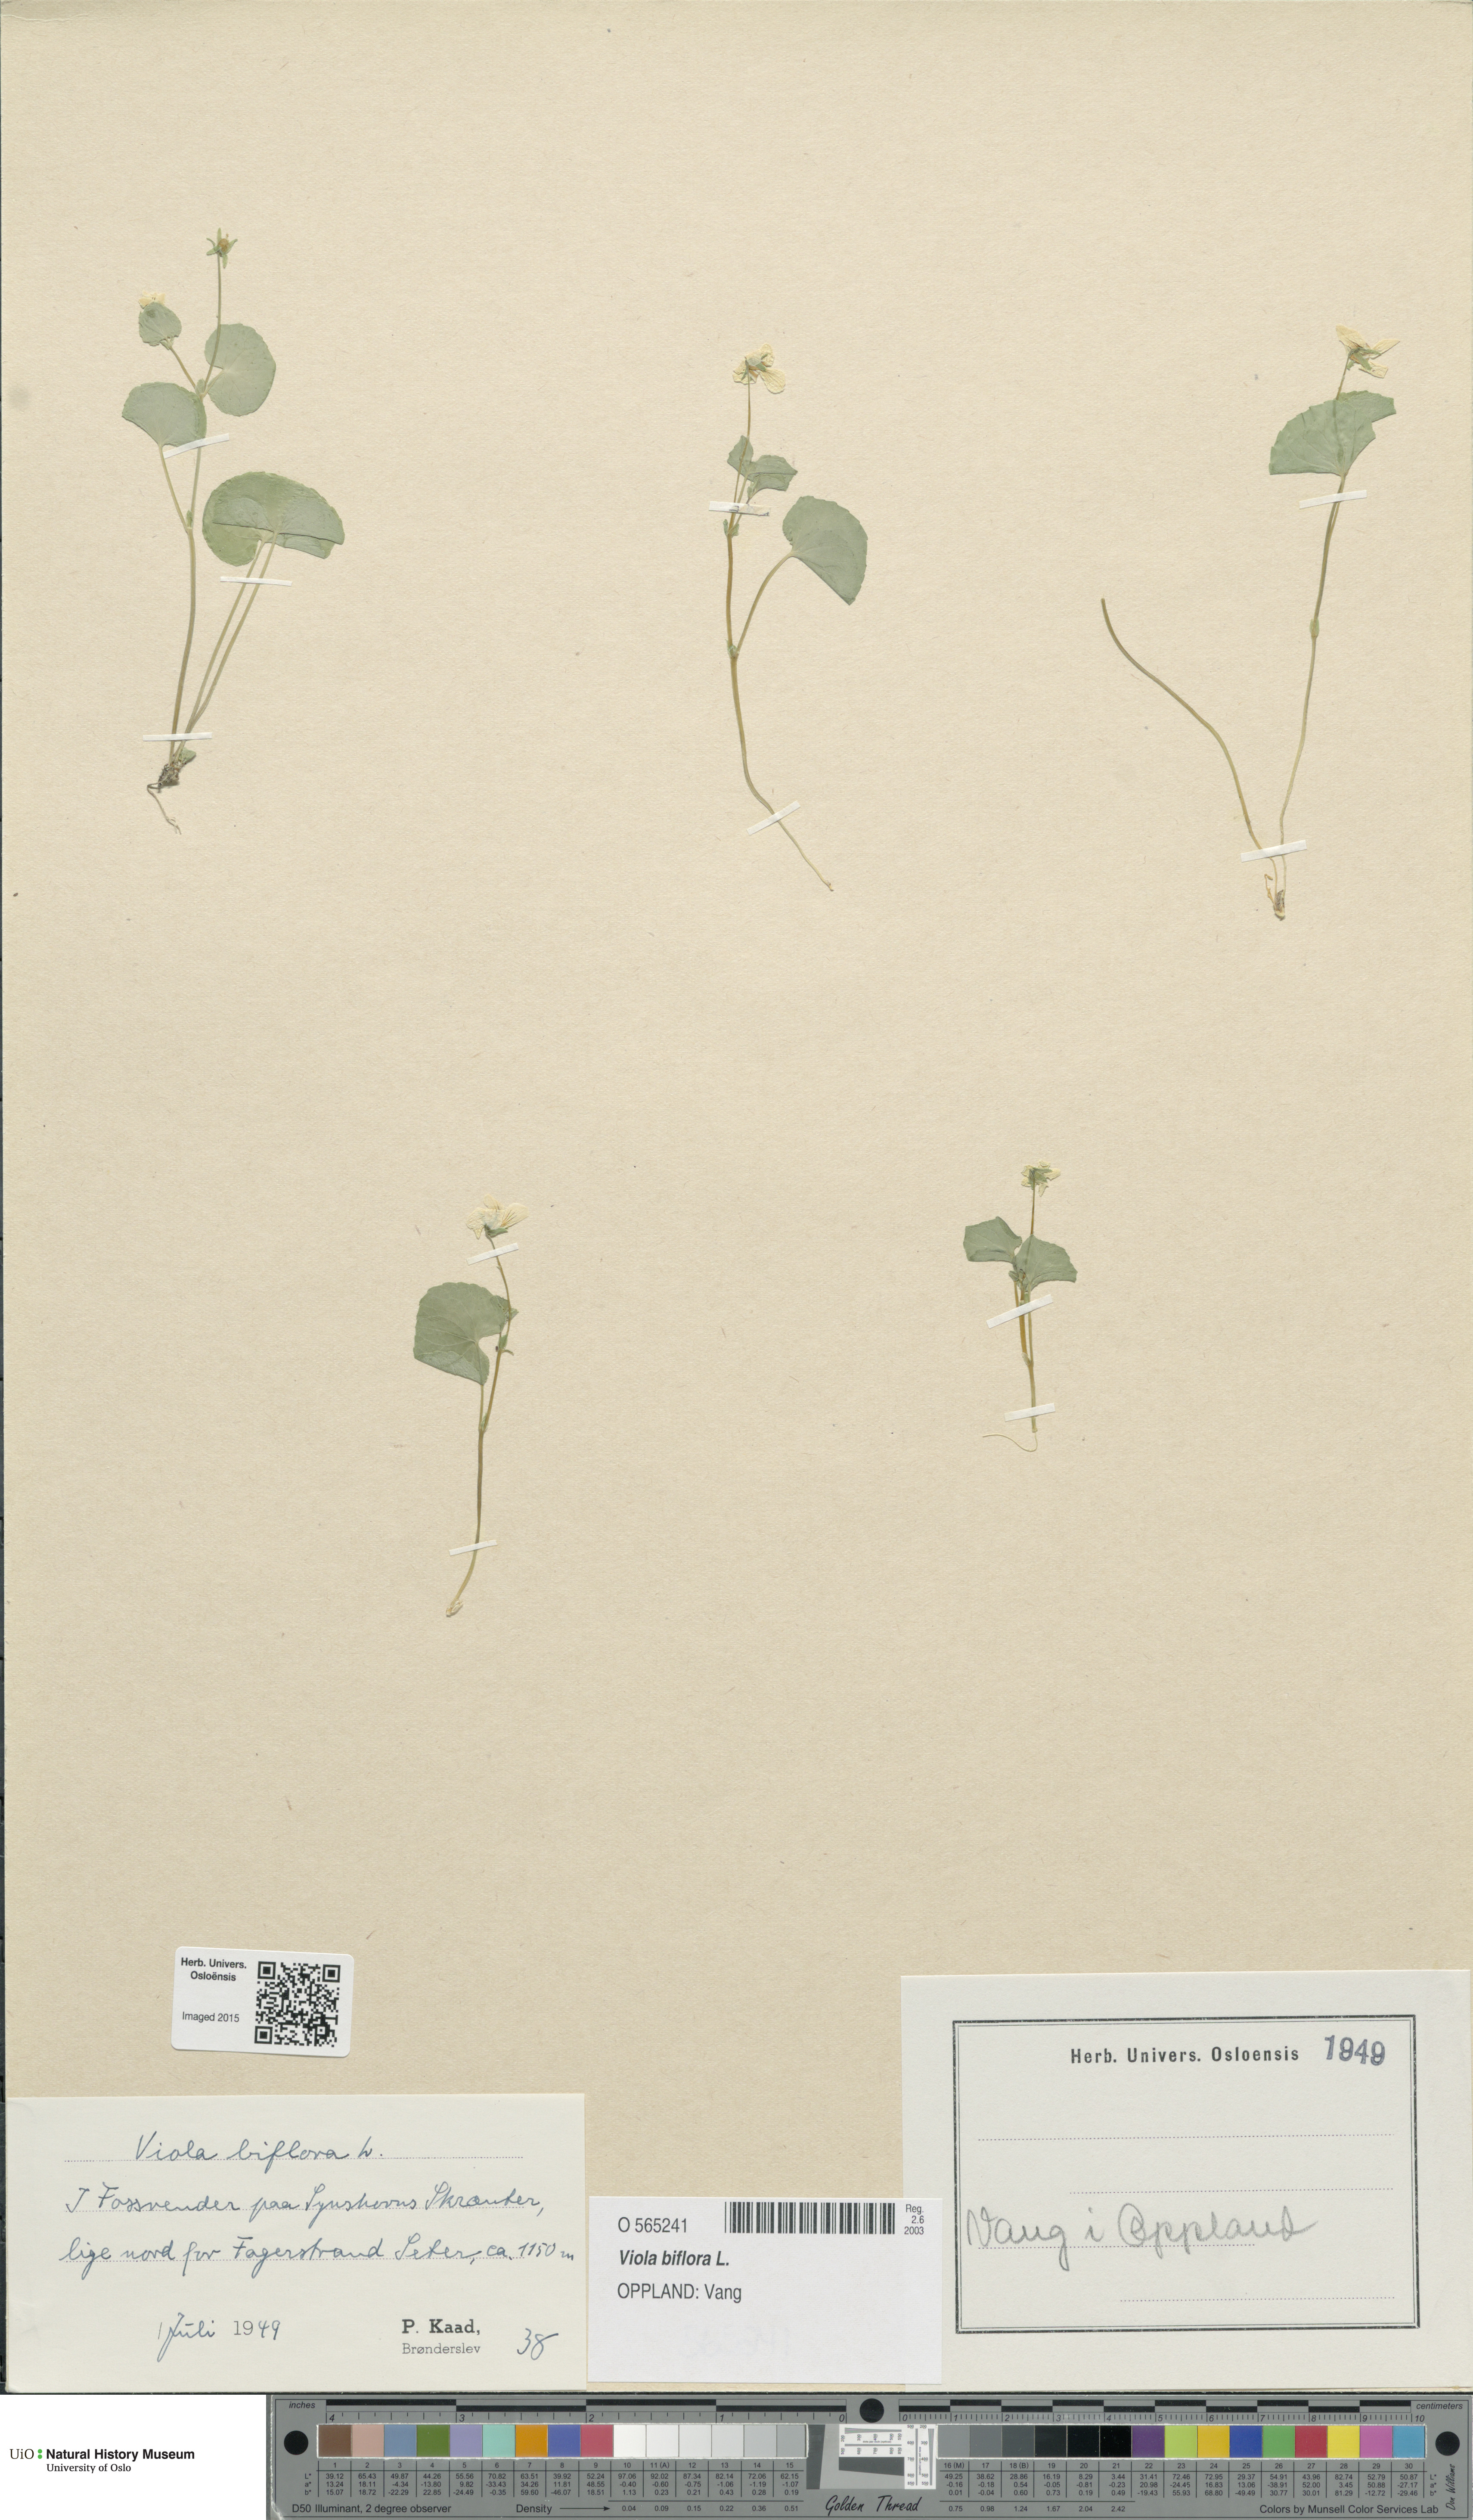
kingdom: Plantae
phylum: Tracheophyta
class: Magnoliopsida
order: Malpighiales
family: Violaceae
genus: Viola
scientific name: Viola biflora
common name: Alpine yellow violet
